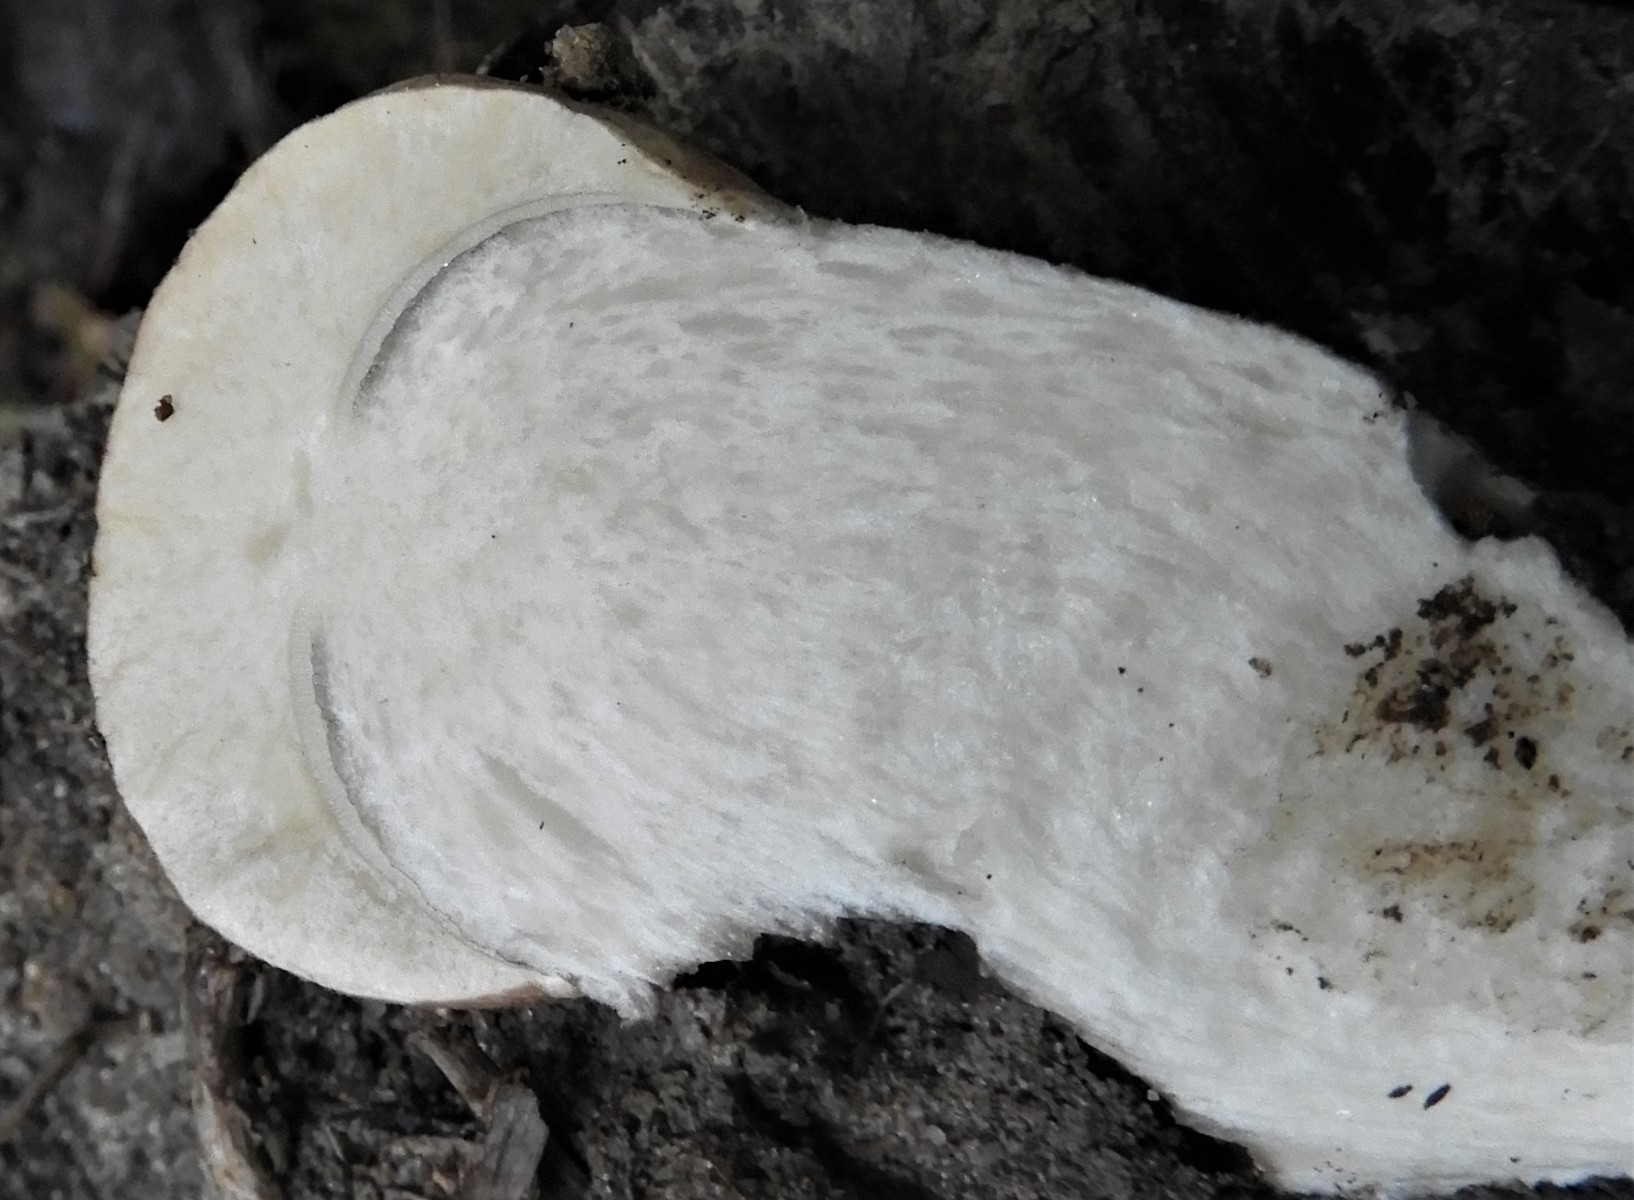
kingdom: Fungi
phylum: Basidiomycota
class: Agaricomycetes
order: Boletales
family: Boletaceae
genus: Leccinum
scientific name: Leccinum
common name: skælrørhat
